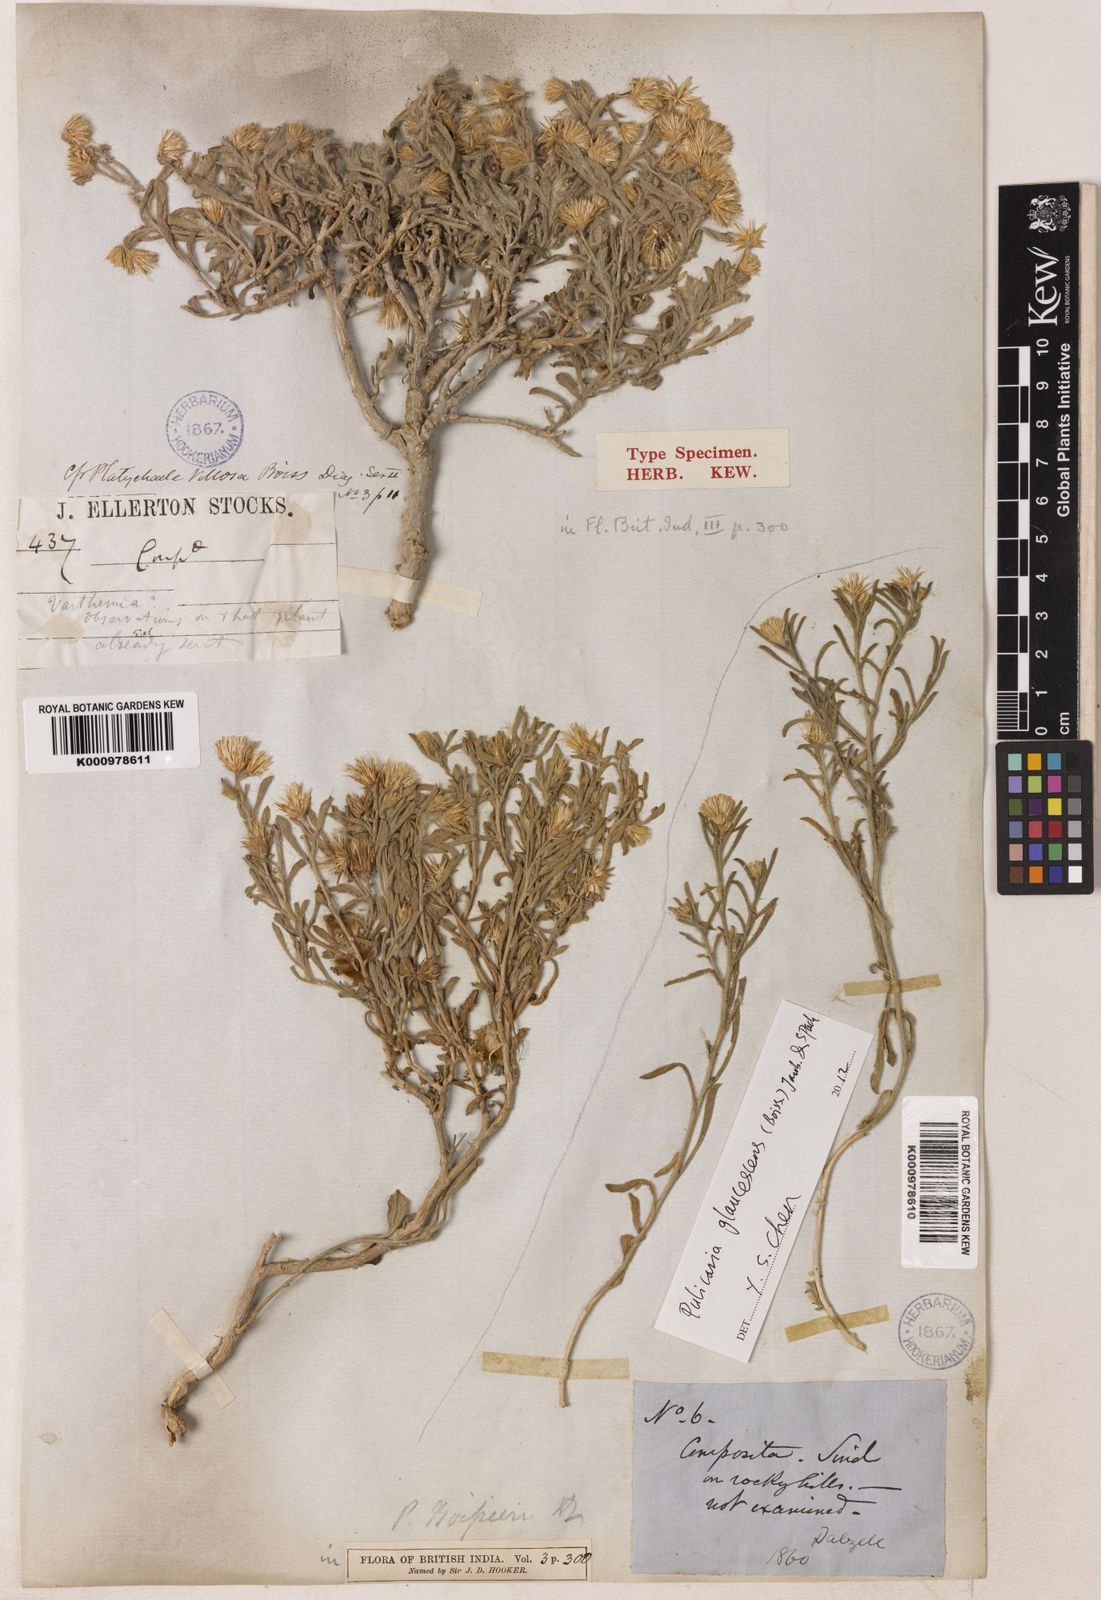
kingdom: Plantae
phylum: Tracheophyta
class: Magnoliopsida
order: Asterales
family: Asteraceae
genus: Pulicaria
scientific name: Pulicaria boissieri
